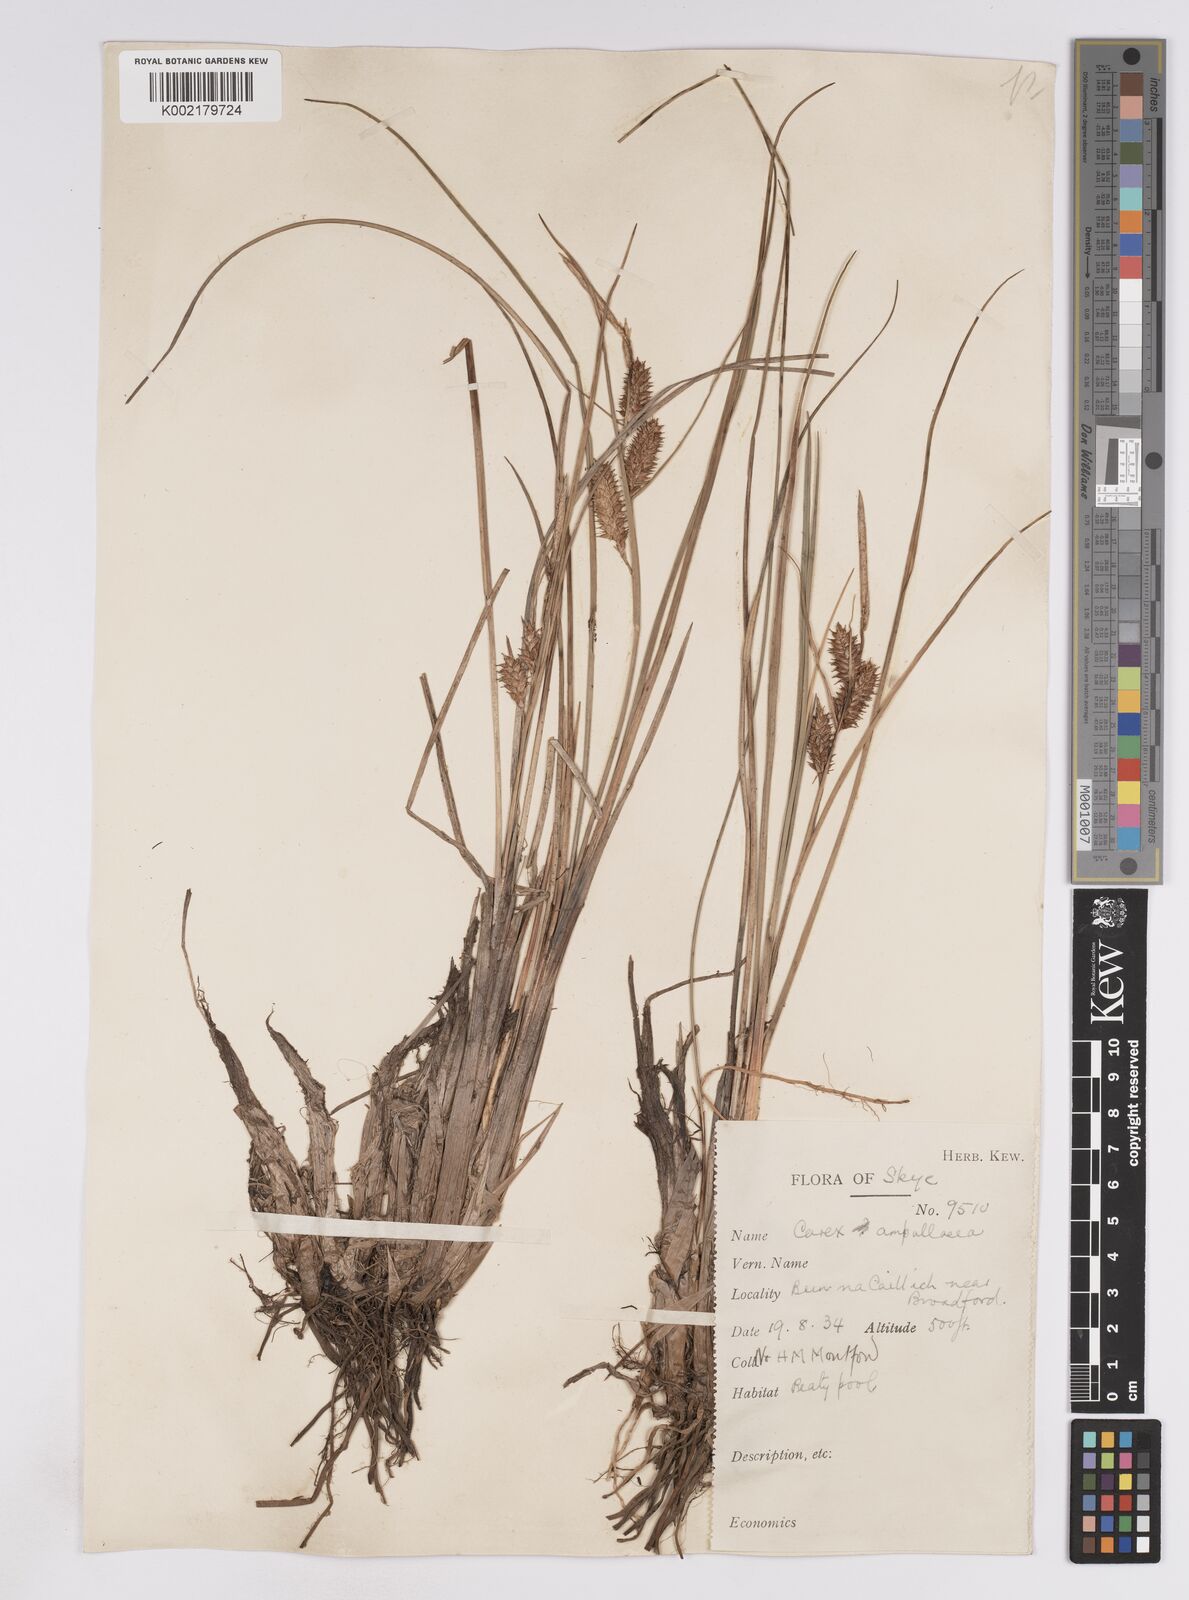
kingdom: Plantae
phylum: Tracheophyta
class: Liliopsida
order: Poales
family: Cyperaceae
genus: Carex
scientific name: Carex rostrata
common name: Bottle sedge
